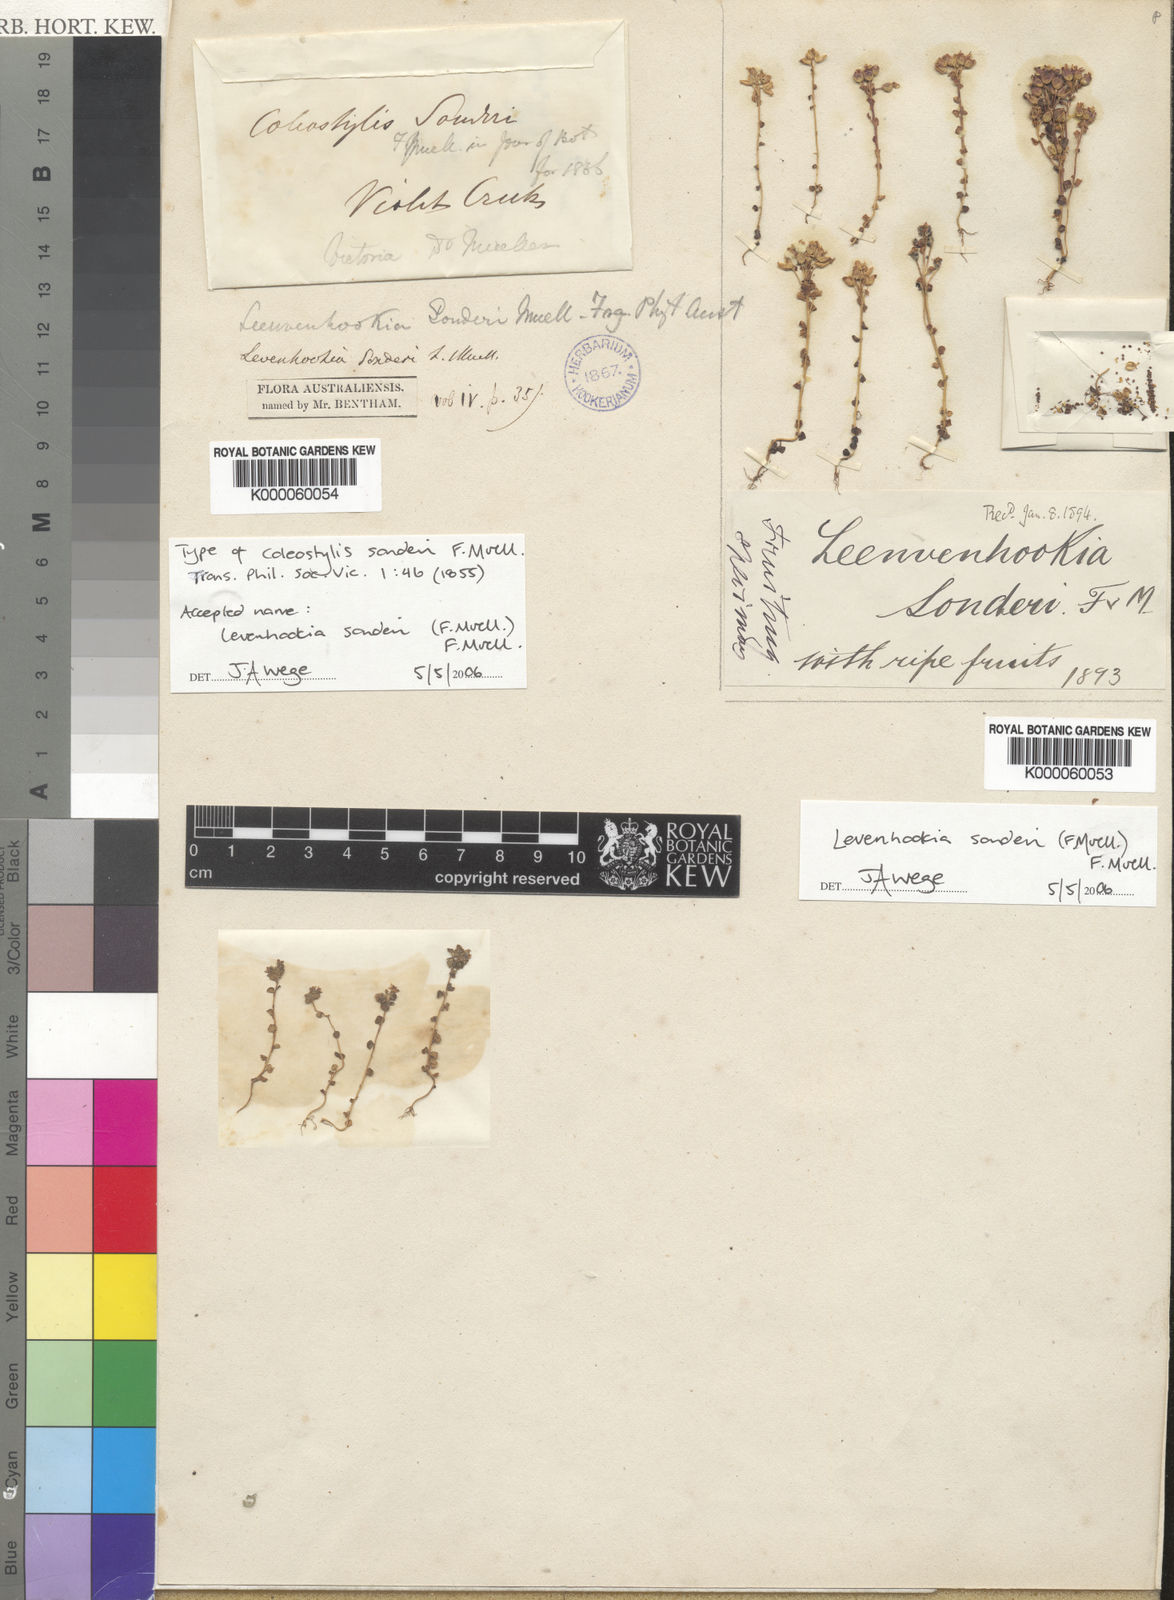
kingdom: Plantae
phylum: Tracheophyta
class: Magnoliopsida
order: Asterales
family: Stylidiaceae
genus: Levenhookia
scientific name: Levenhookia sonderi
